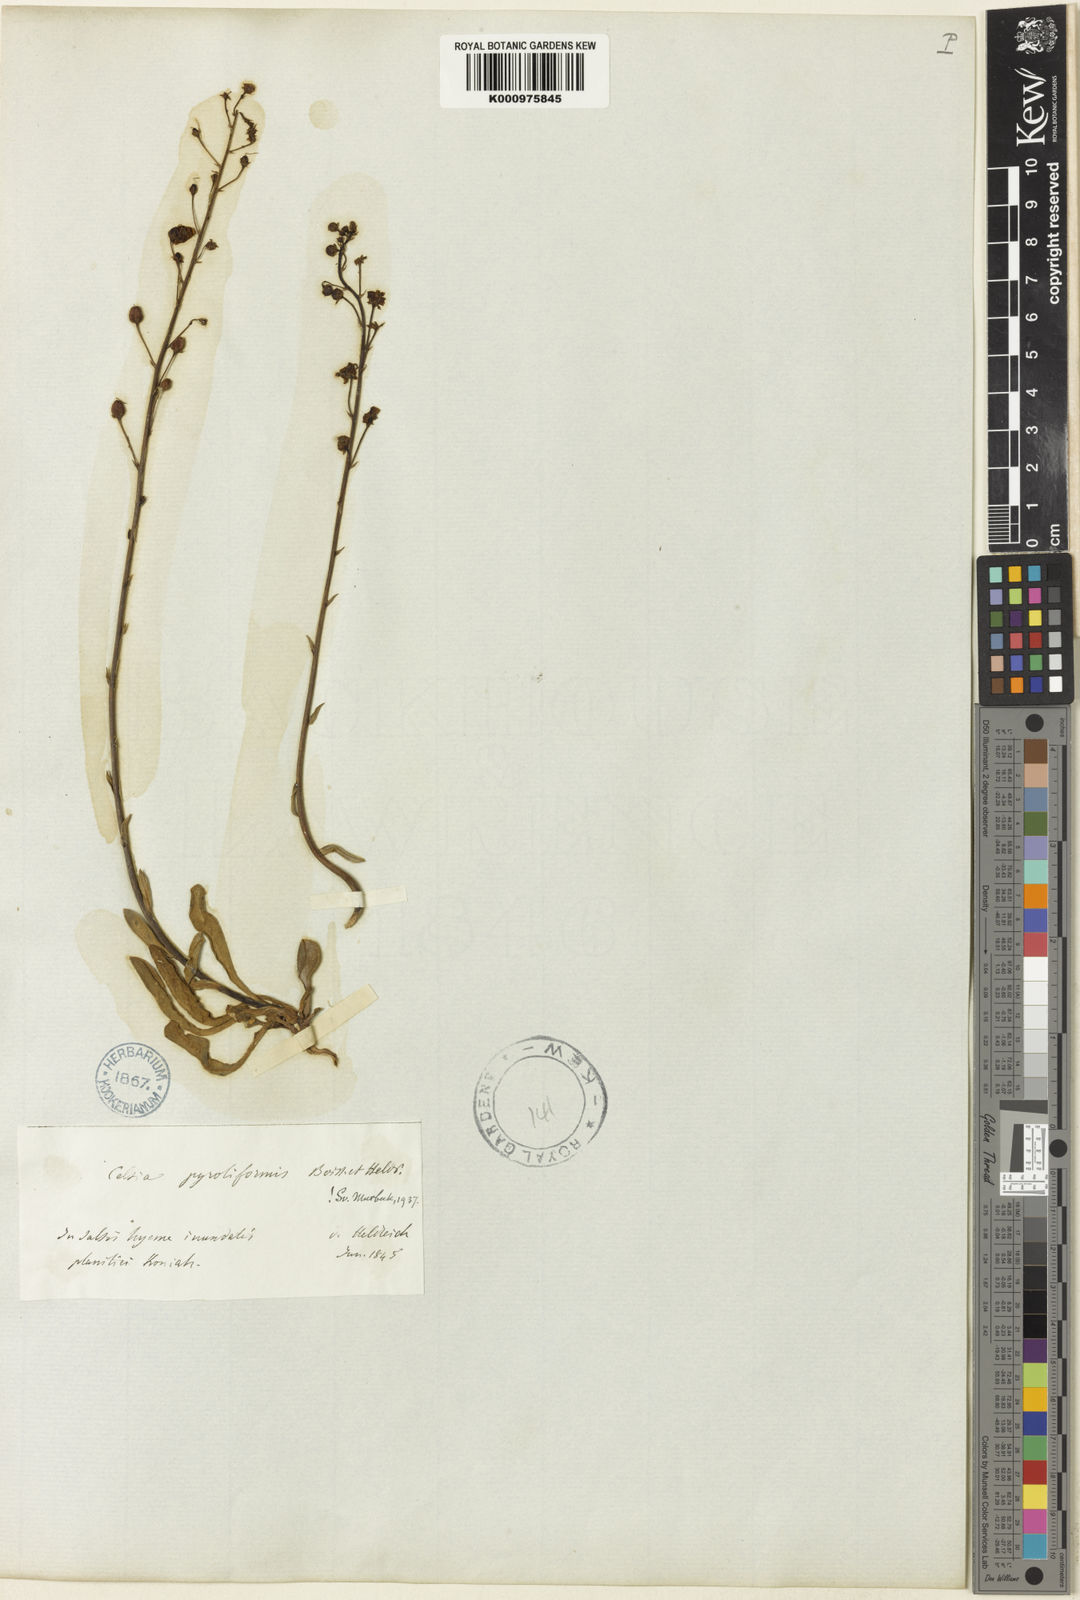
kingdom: Plantae
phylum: Tracheophyta
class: Magnoliopsida
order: Lamiales
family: Scrophulariaceae
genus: Verbascum
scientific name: Verbascum pyroliforme
